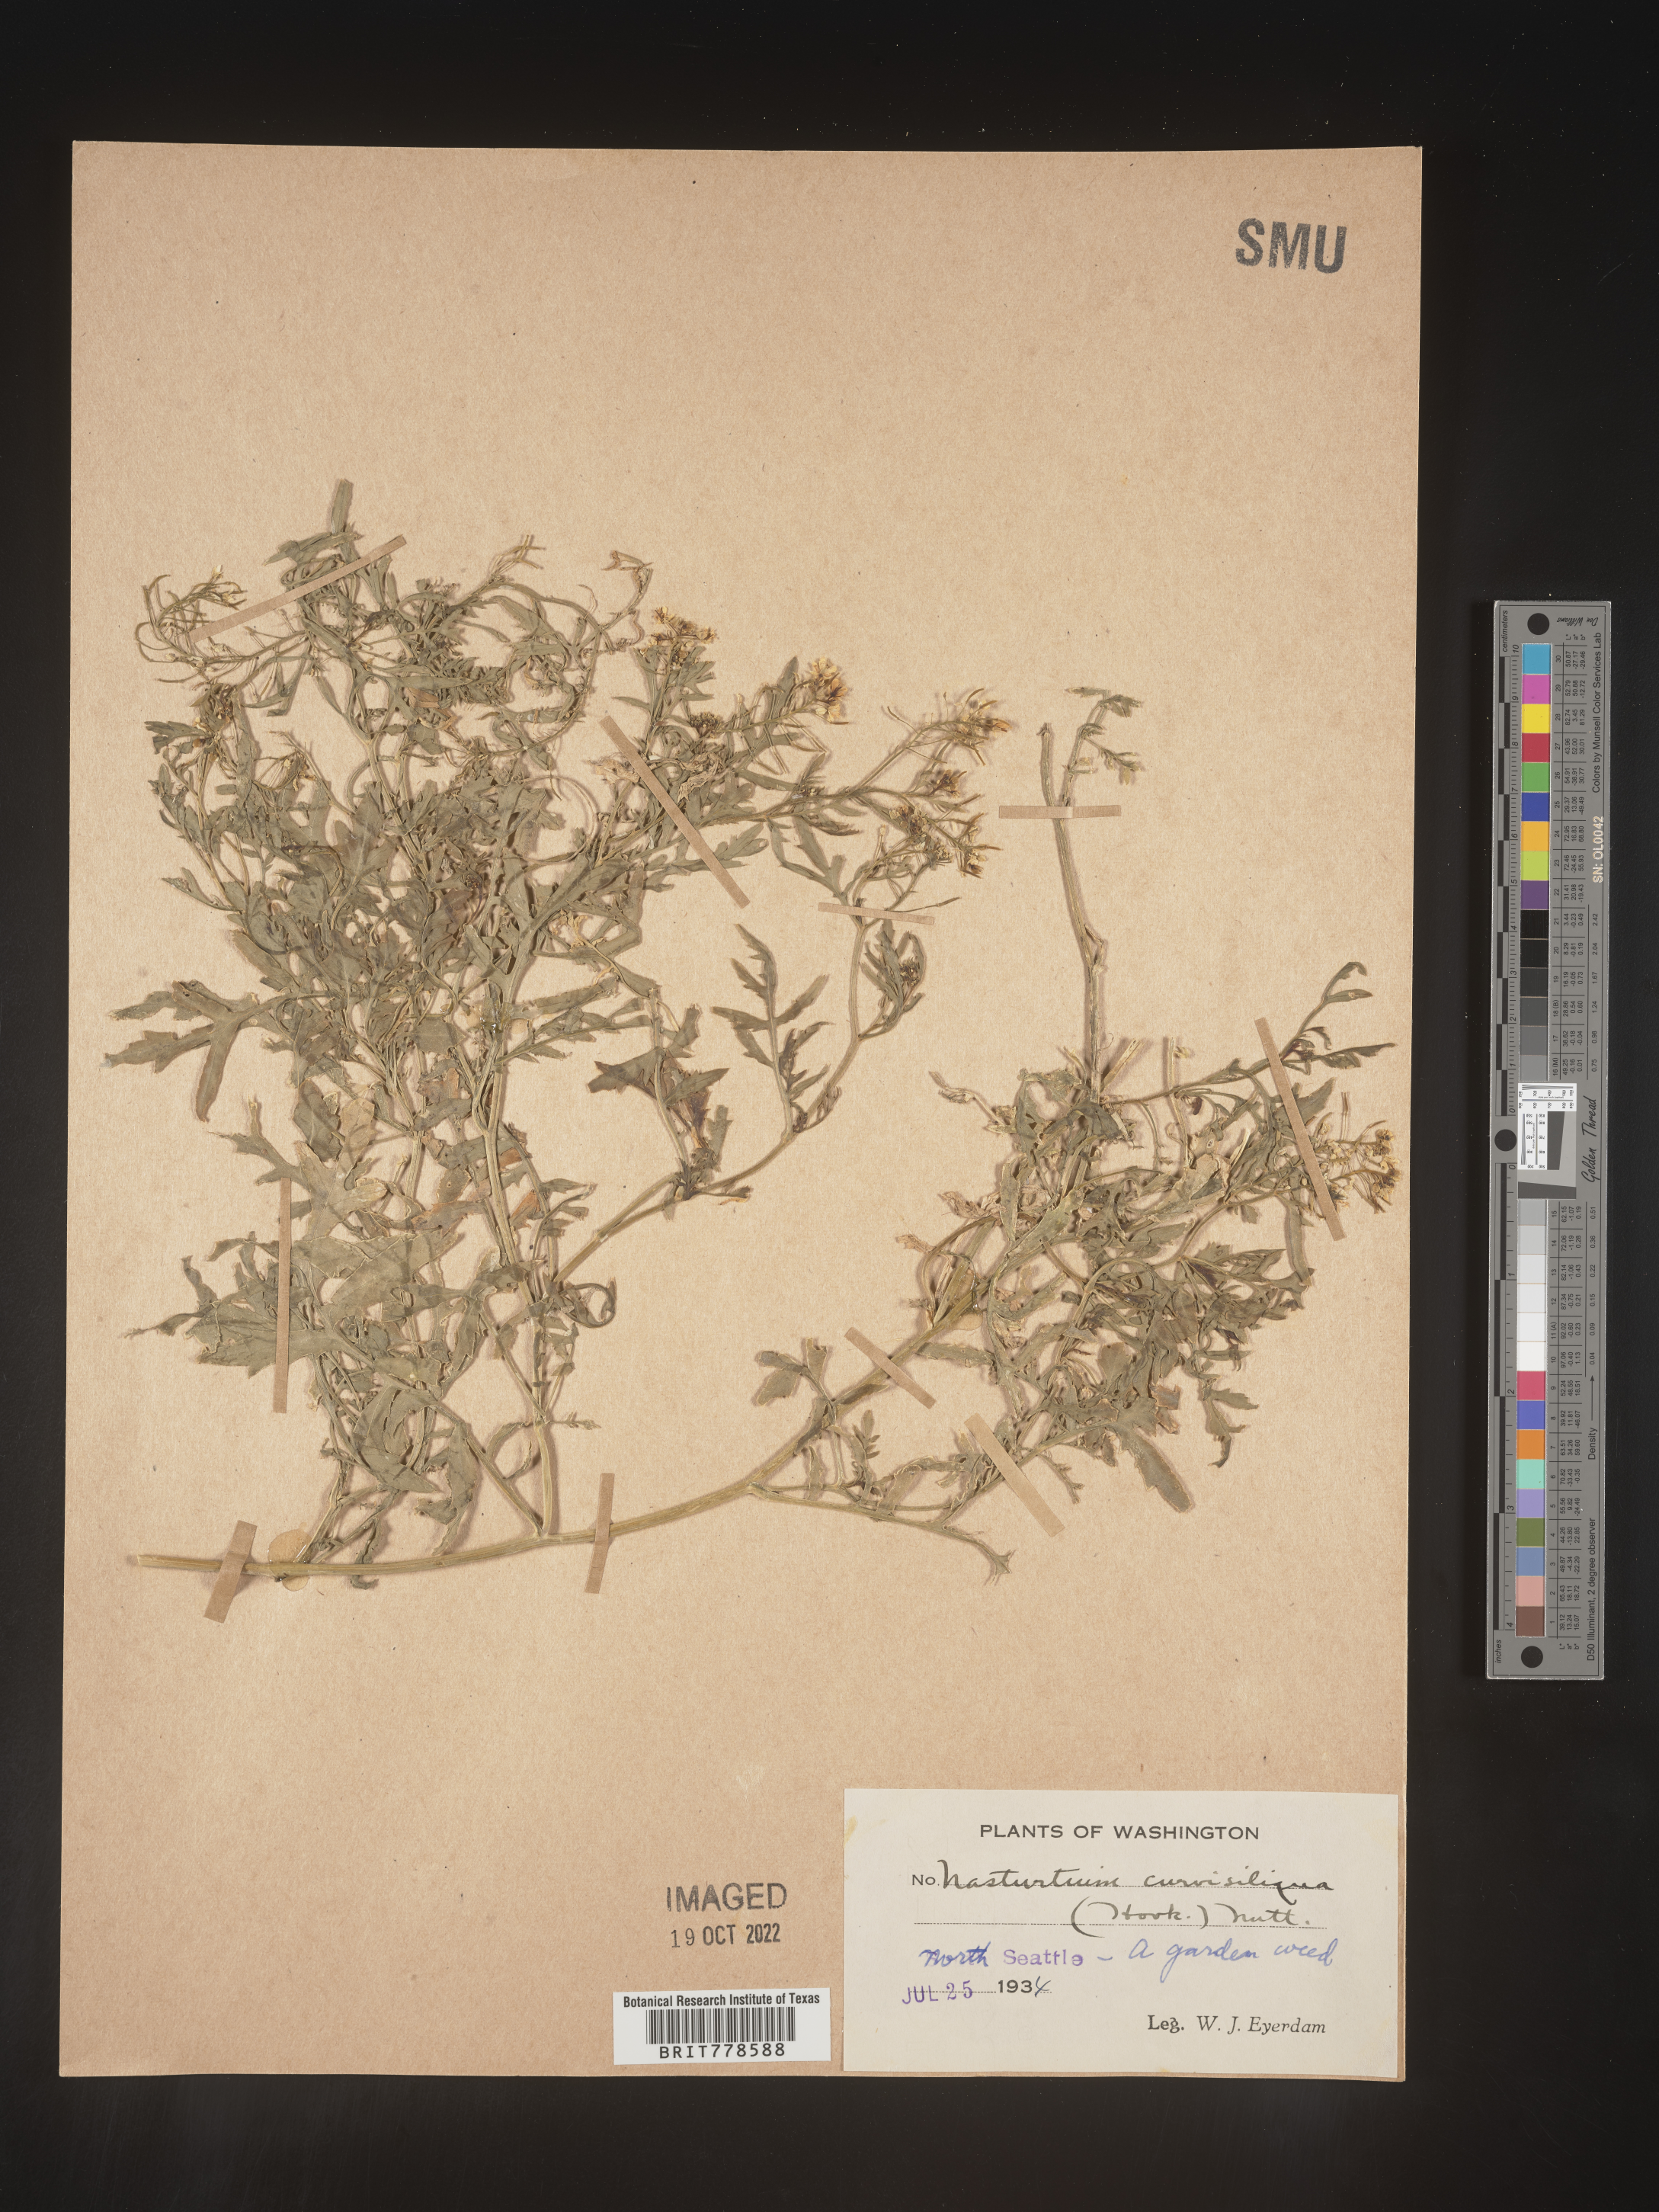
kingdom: Plantae
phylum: Tracheophyta
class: Magnoliopsida
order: Brassicales
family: Brassicaceae
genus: Rorippa
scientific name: Rorippa
